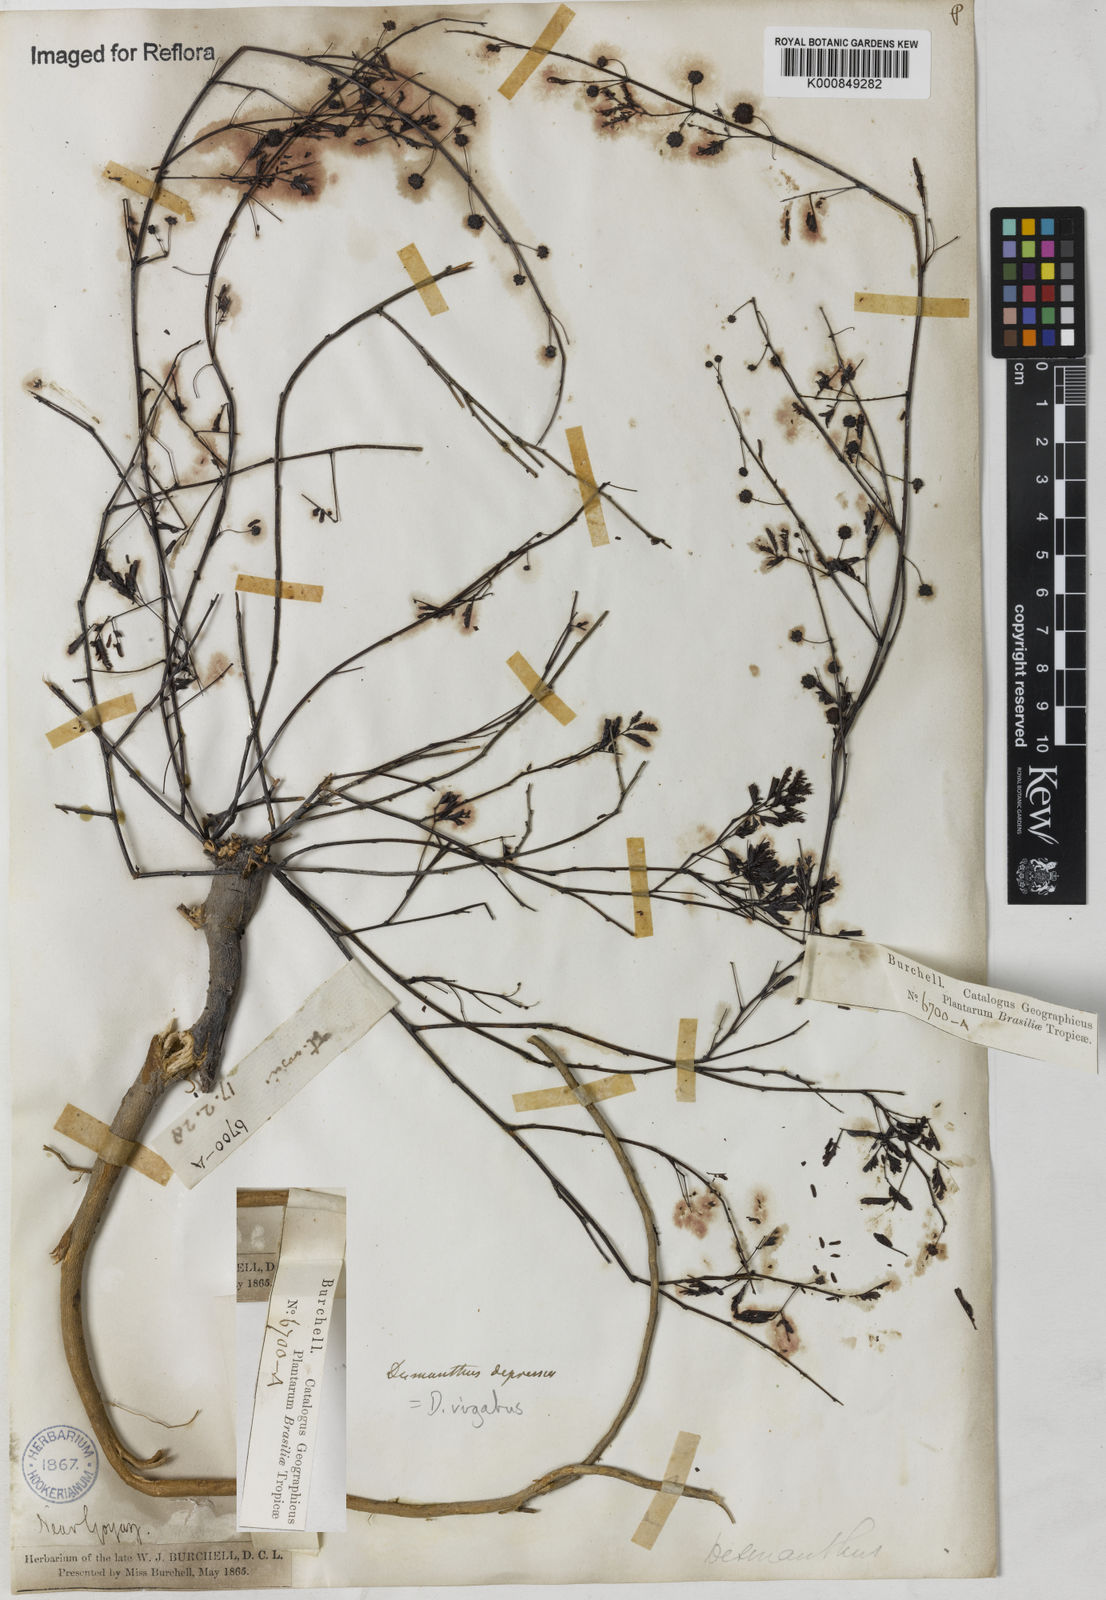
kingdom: Plantae
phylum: Tracheophyta
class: Magnoliopsida
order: Fabales
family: Fabaceae
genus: Desmanthus
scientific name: Desmanthus virgatus
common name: Wild tantan
